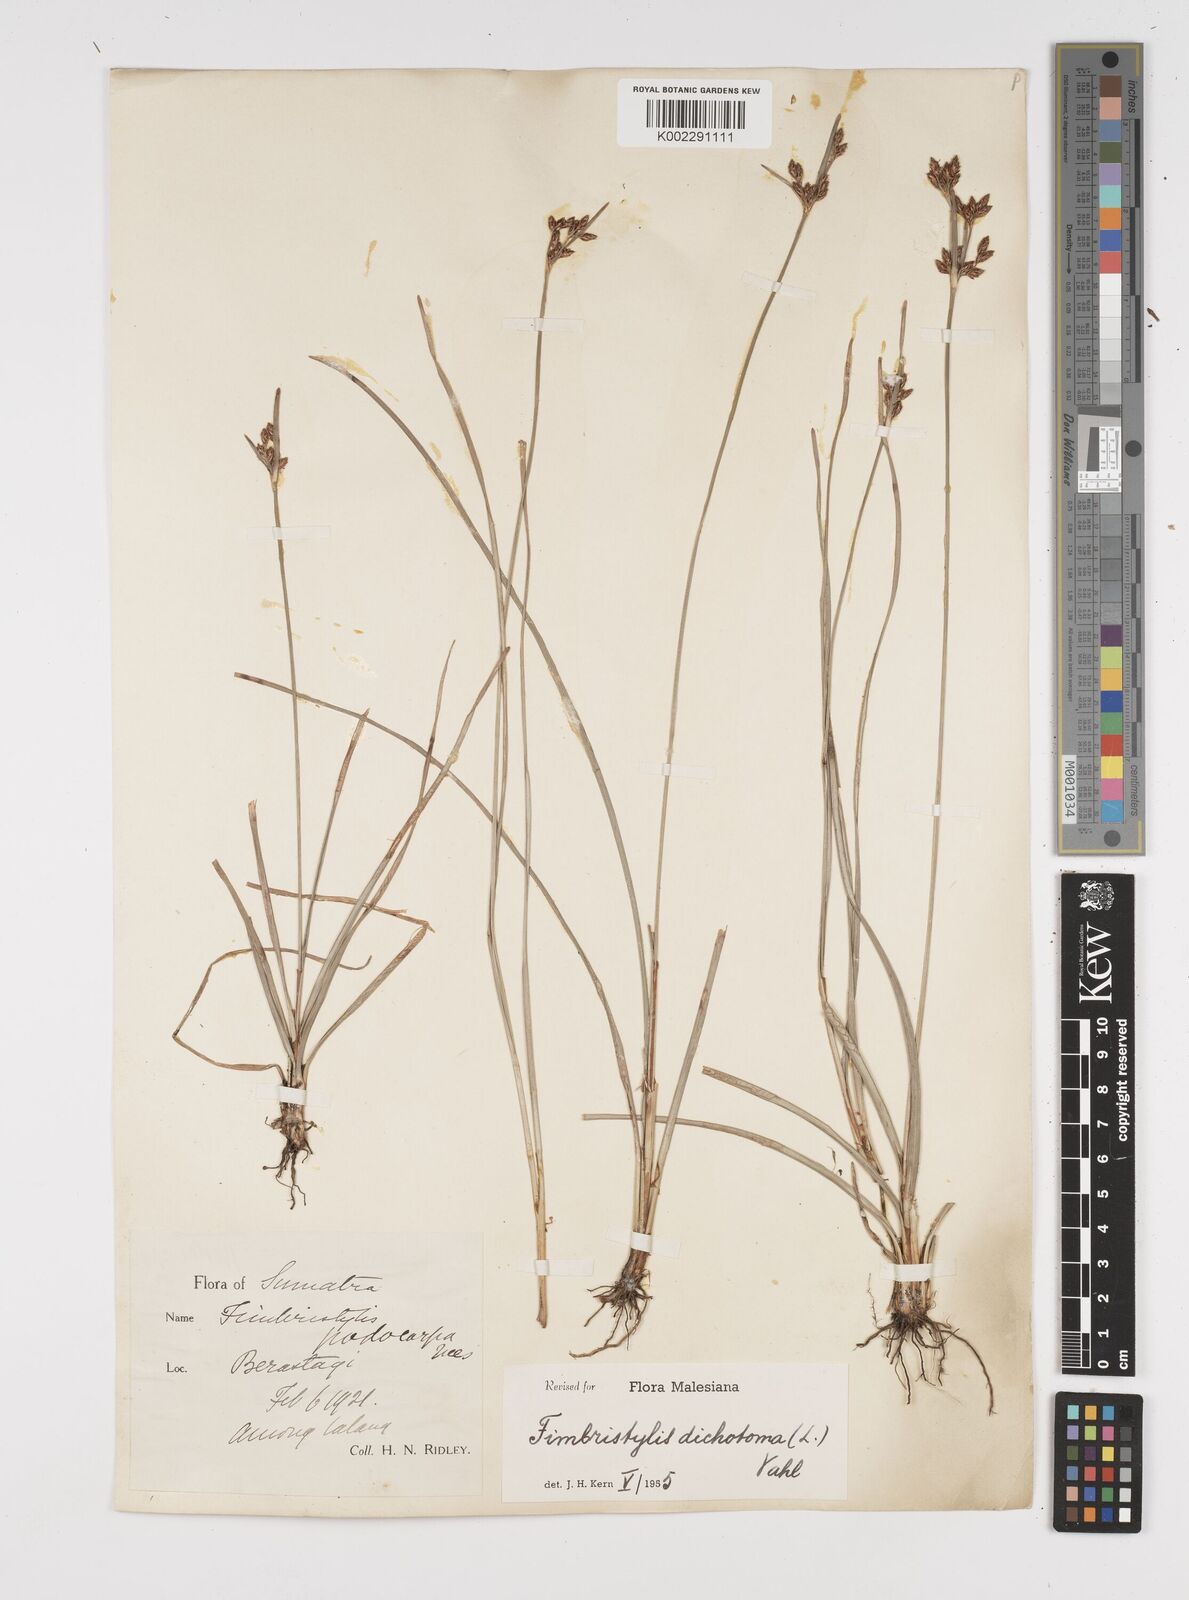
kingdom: Plantae
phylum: Tracheophyta
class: Liliopsida
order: Poales
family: Cyperaceae
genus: Fimbristylis
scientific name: Fimbristylis dichotoma
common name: Forked fimbry
